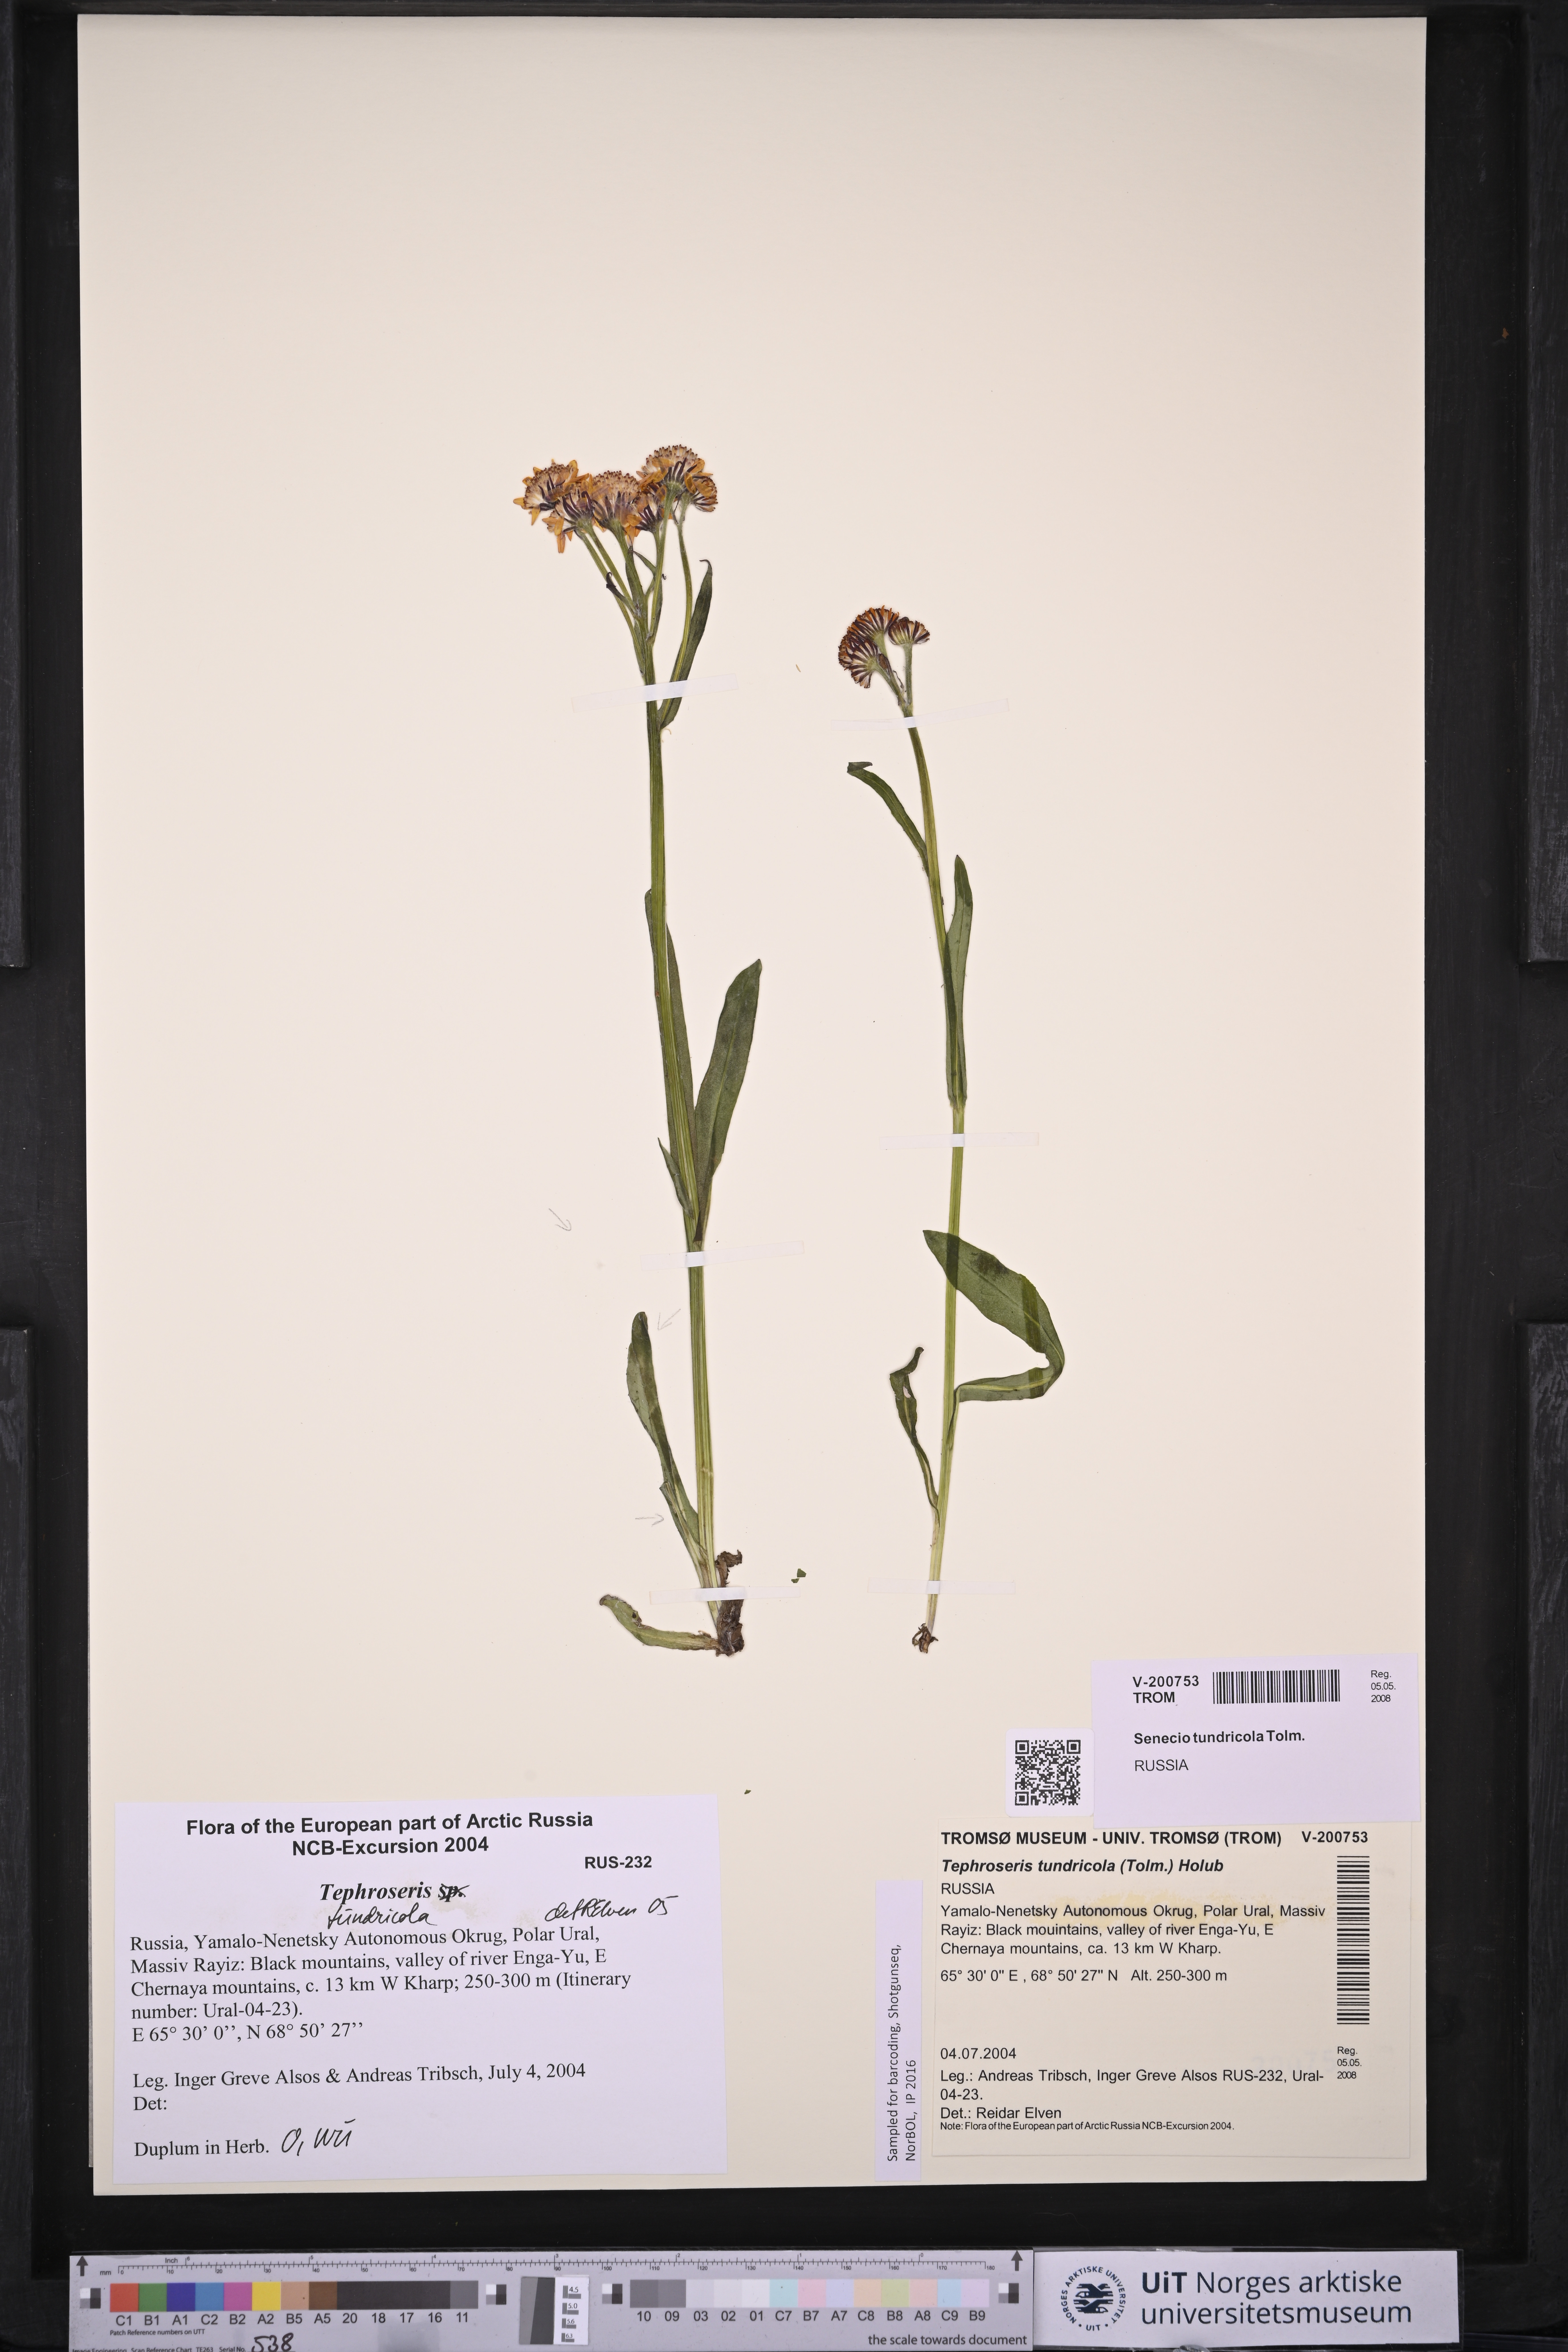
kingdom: Plantae
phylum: Tracheophyta
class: Magnoliopsida
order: Asterales
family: Asteraceae
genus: Tephroseris
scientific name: Tephroseris integrifolia
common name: Field fleawort
